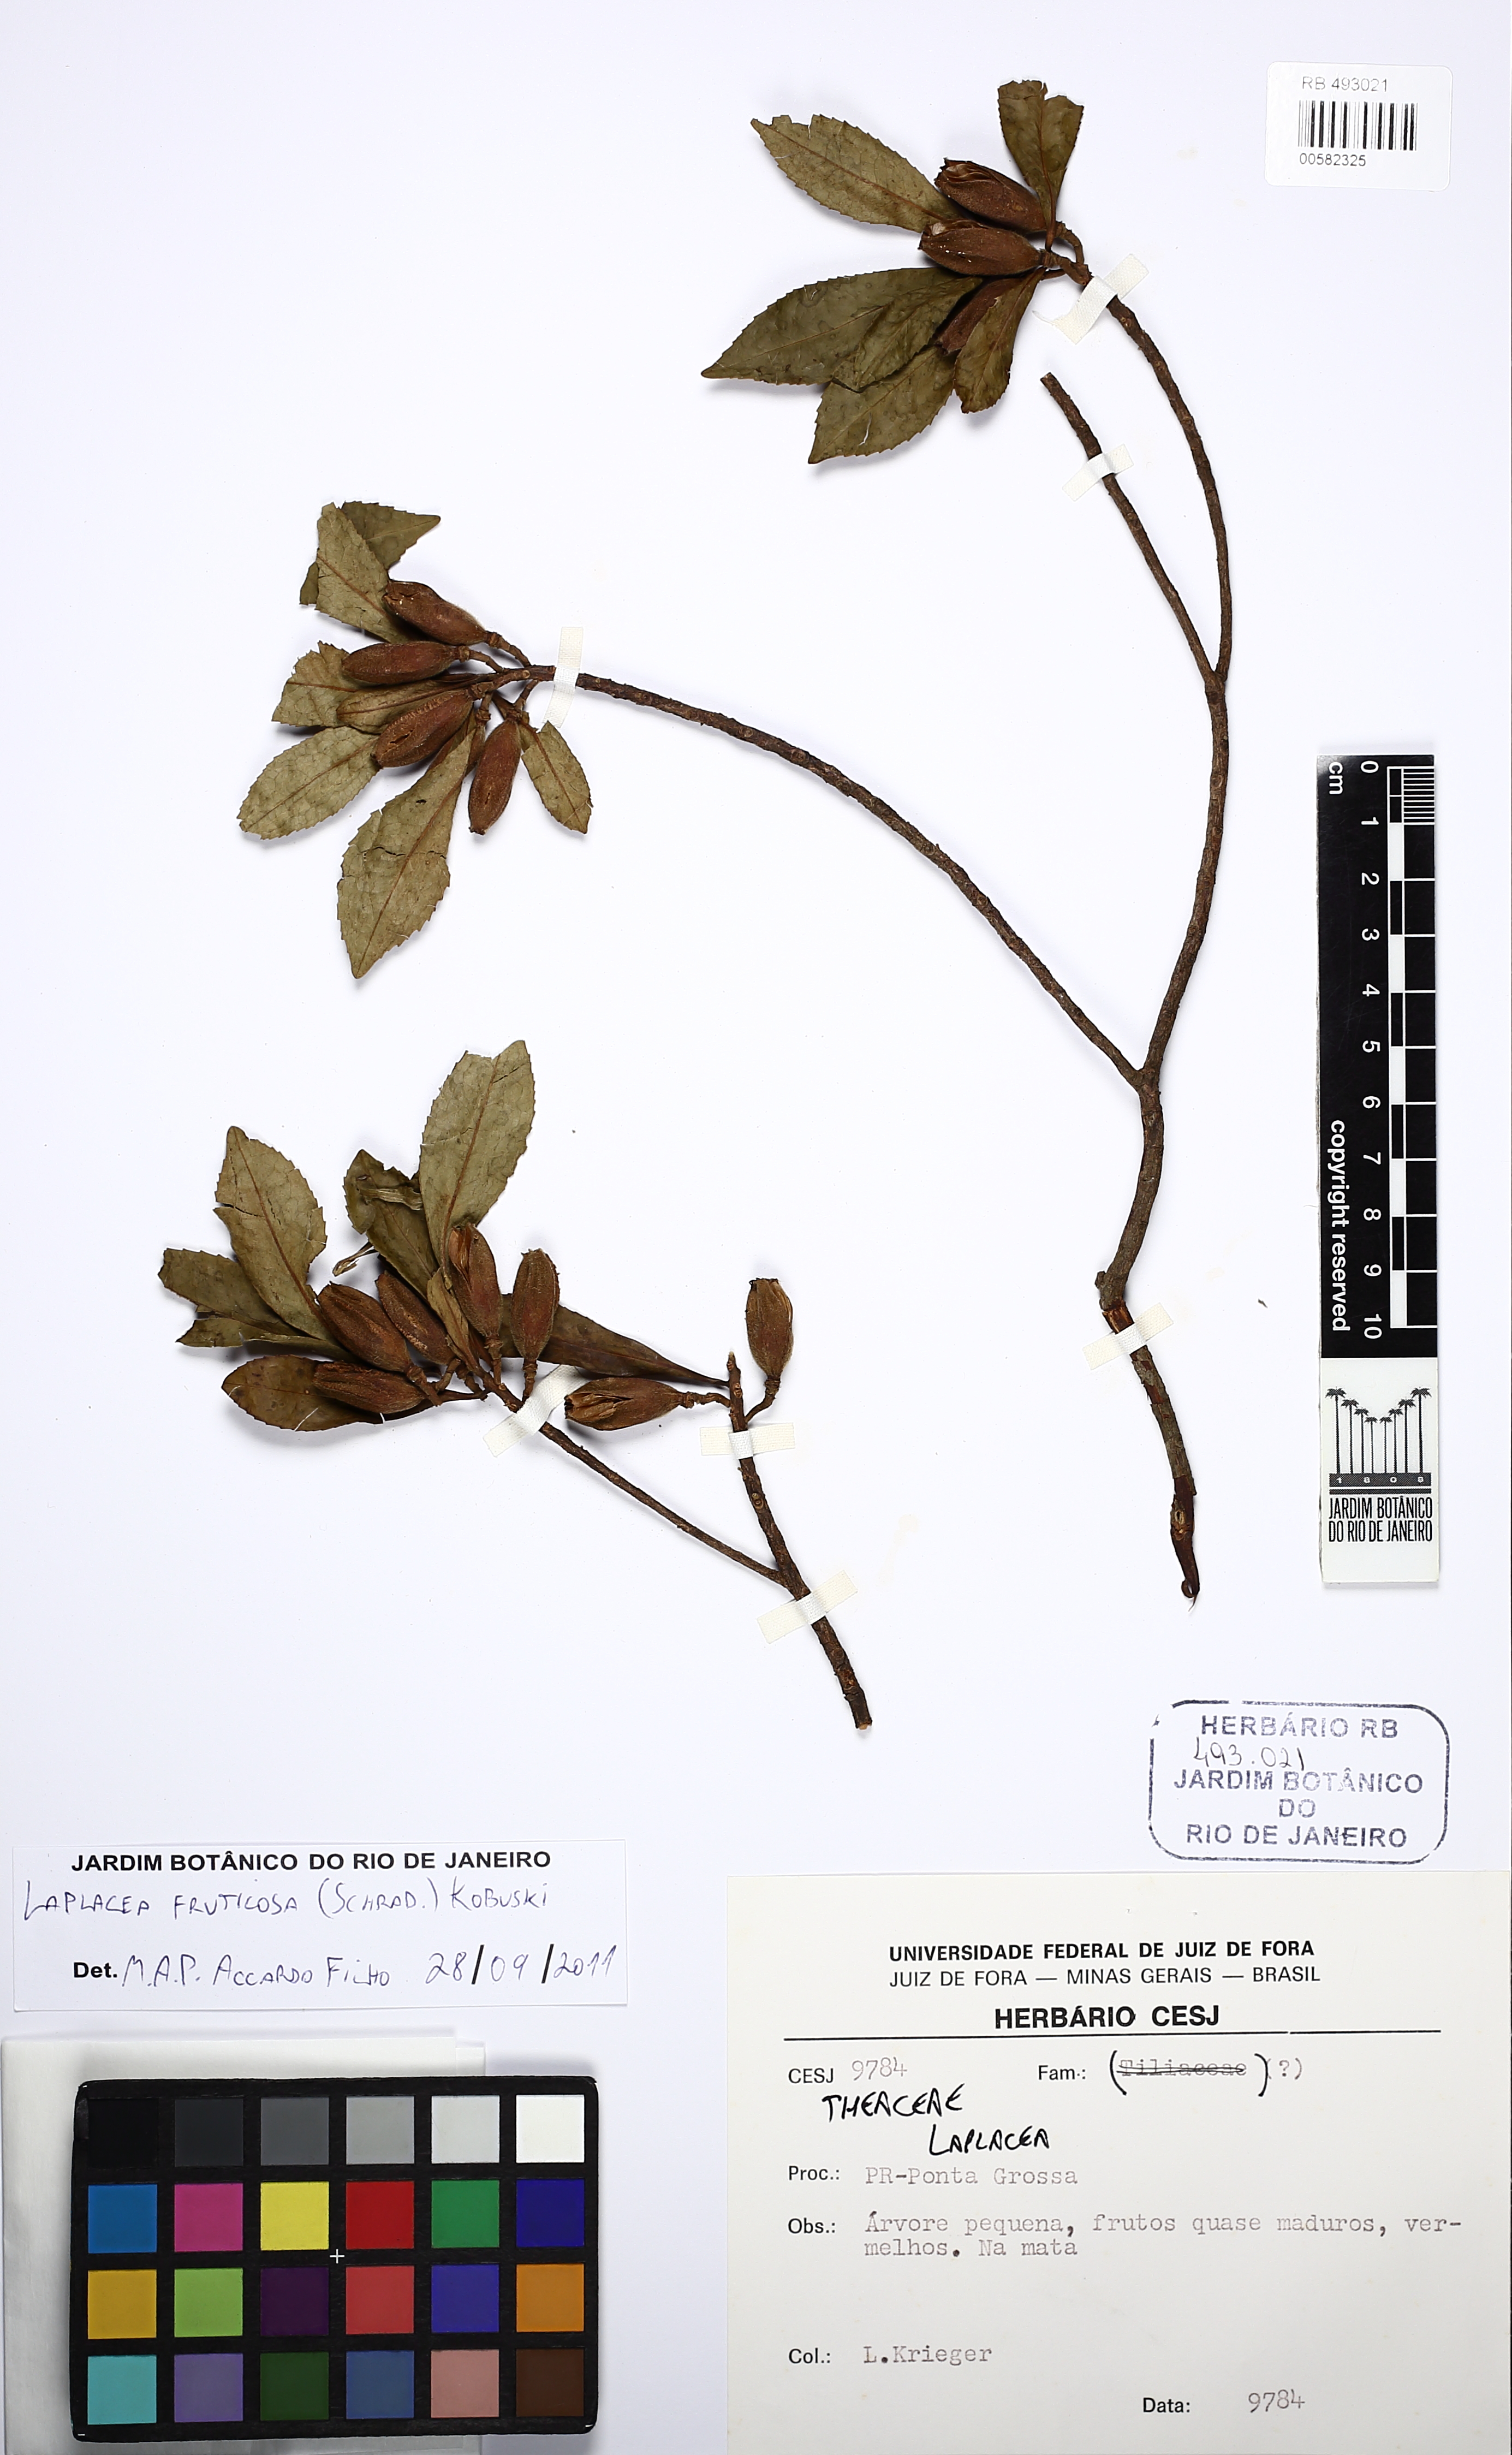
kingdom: Plantae
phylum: Tracheophyta
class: Magnoliopsida
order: Ericales
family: Theaceae
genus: Gordonia
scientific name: Gordonia fruticosa
